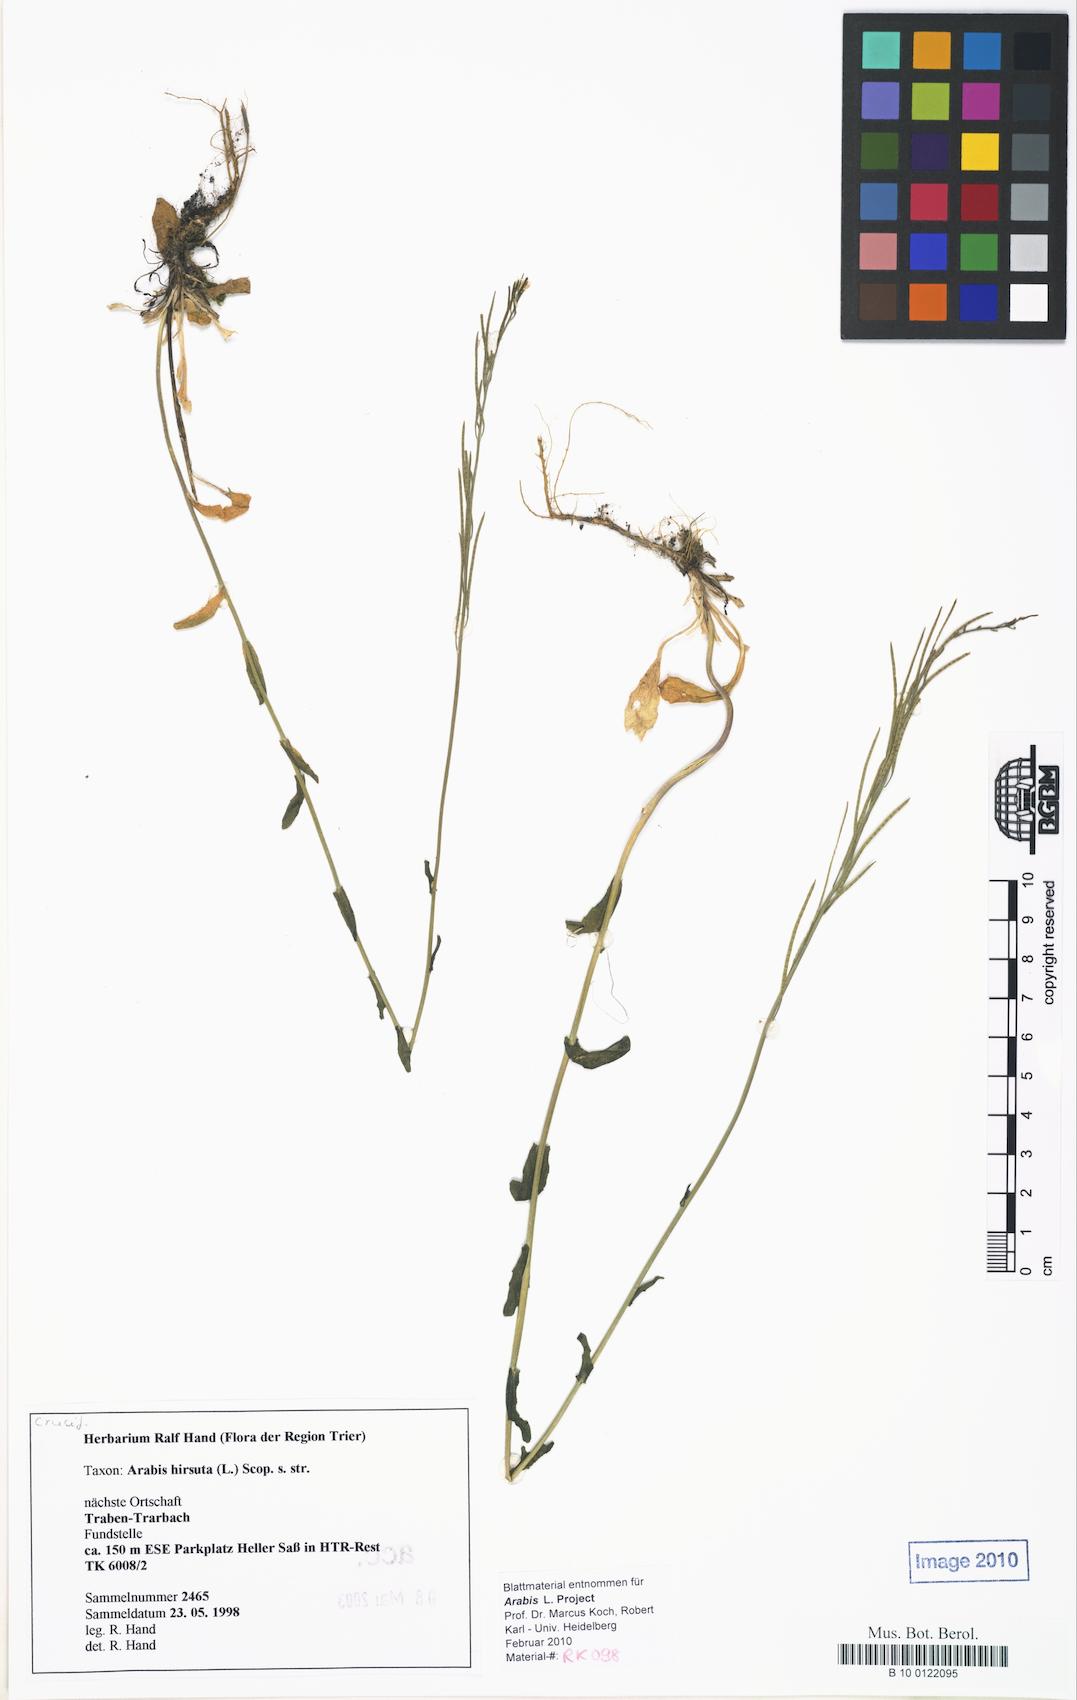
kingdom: Plantae
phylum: Tracheophyta
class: Magnoliopsida
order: Brassicales
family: Brassicaceae
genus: Arabis
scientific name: Arabis hirsuta
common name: Hairy rock-cress
